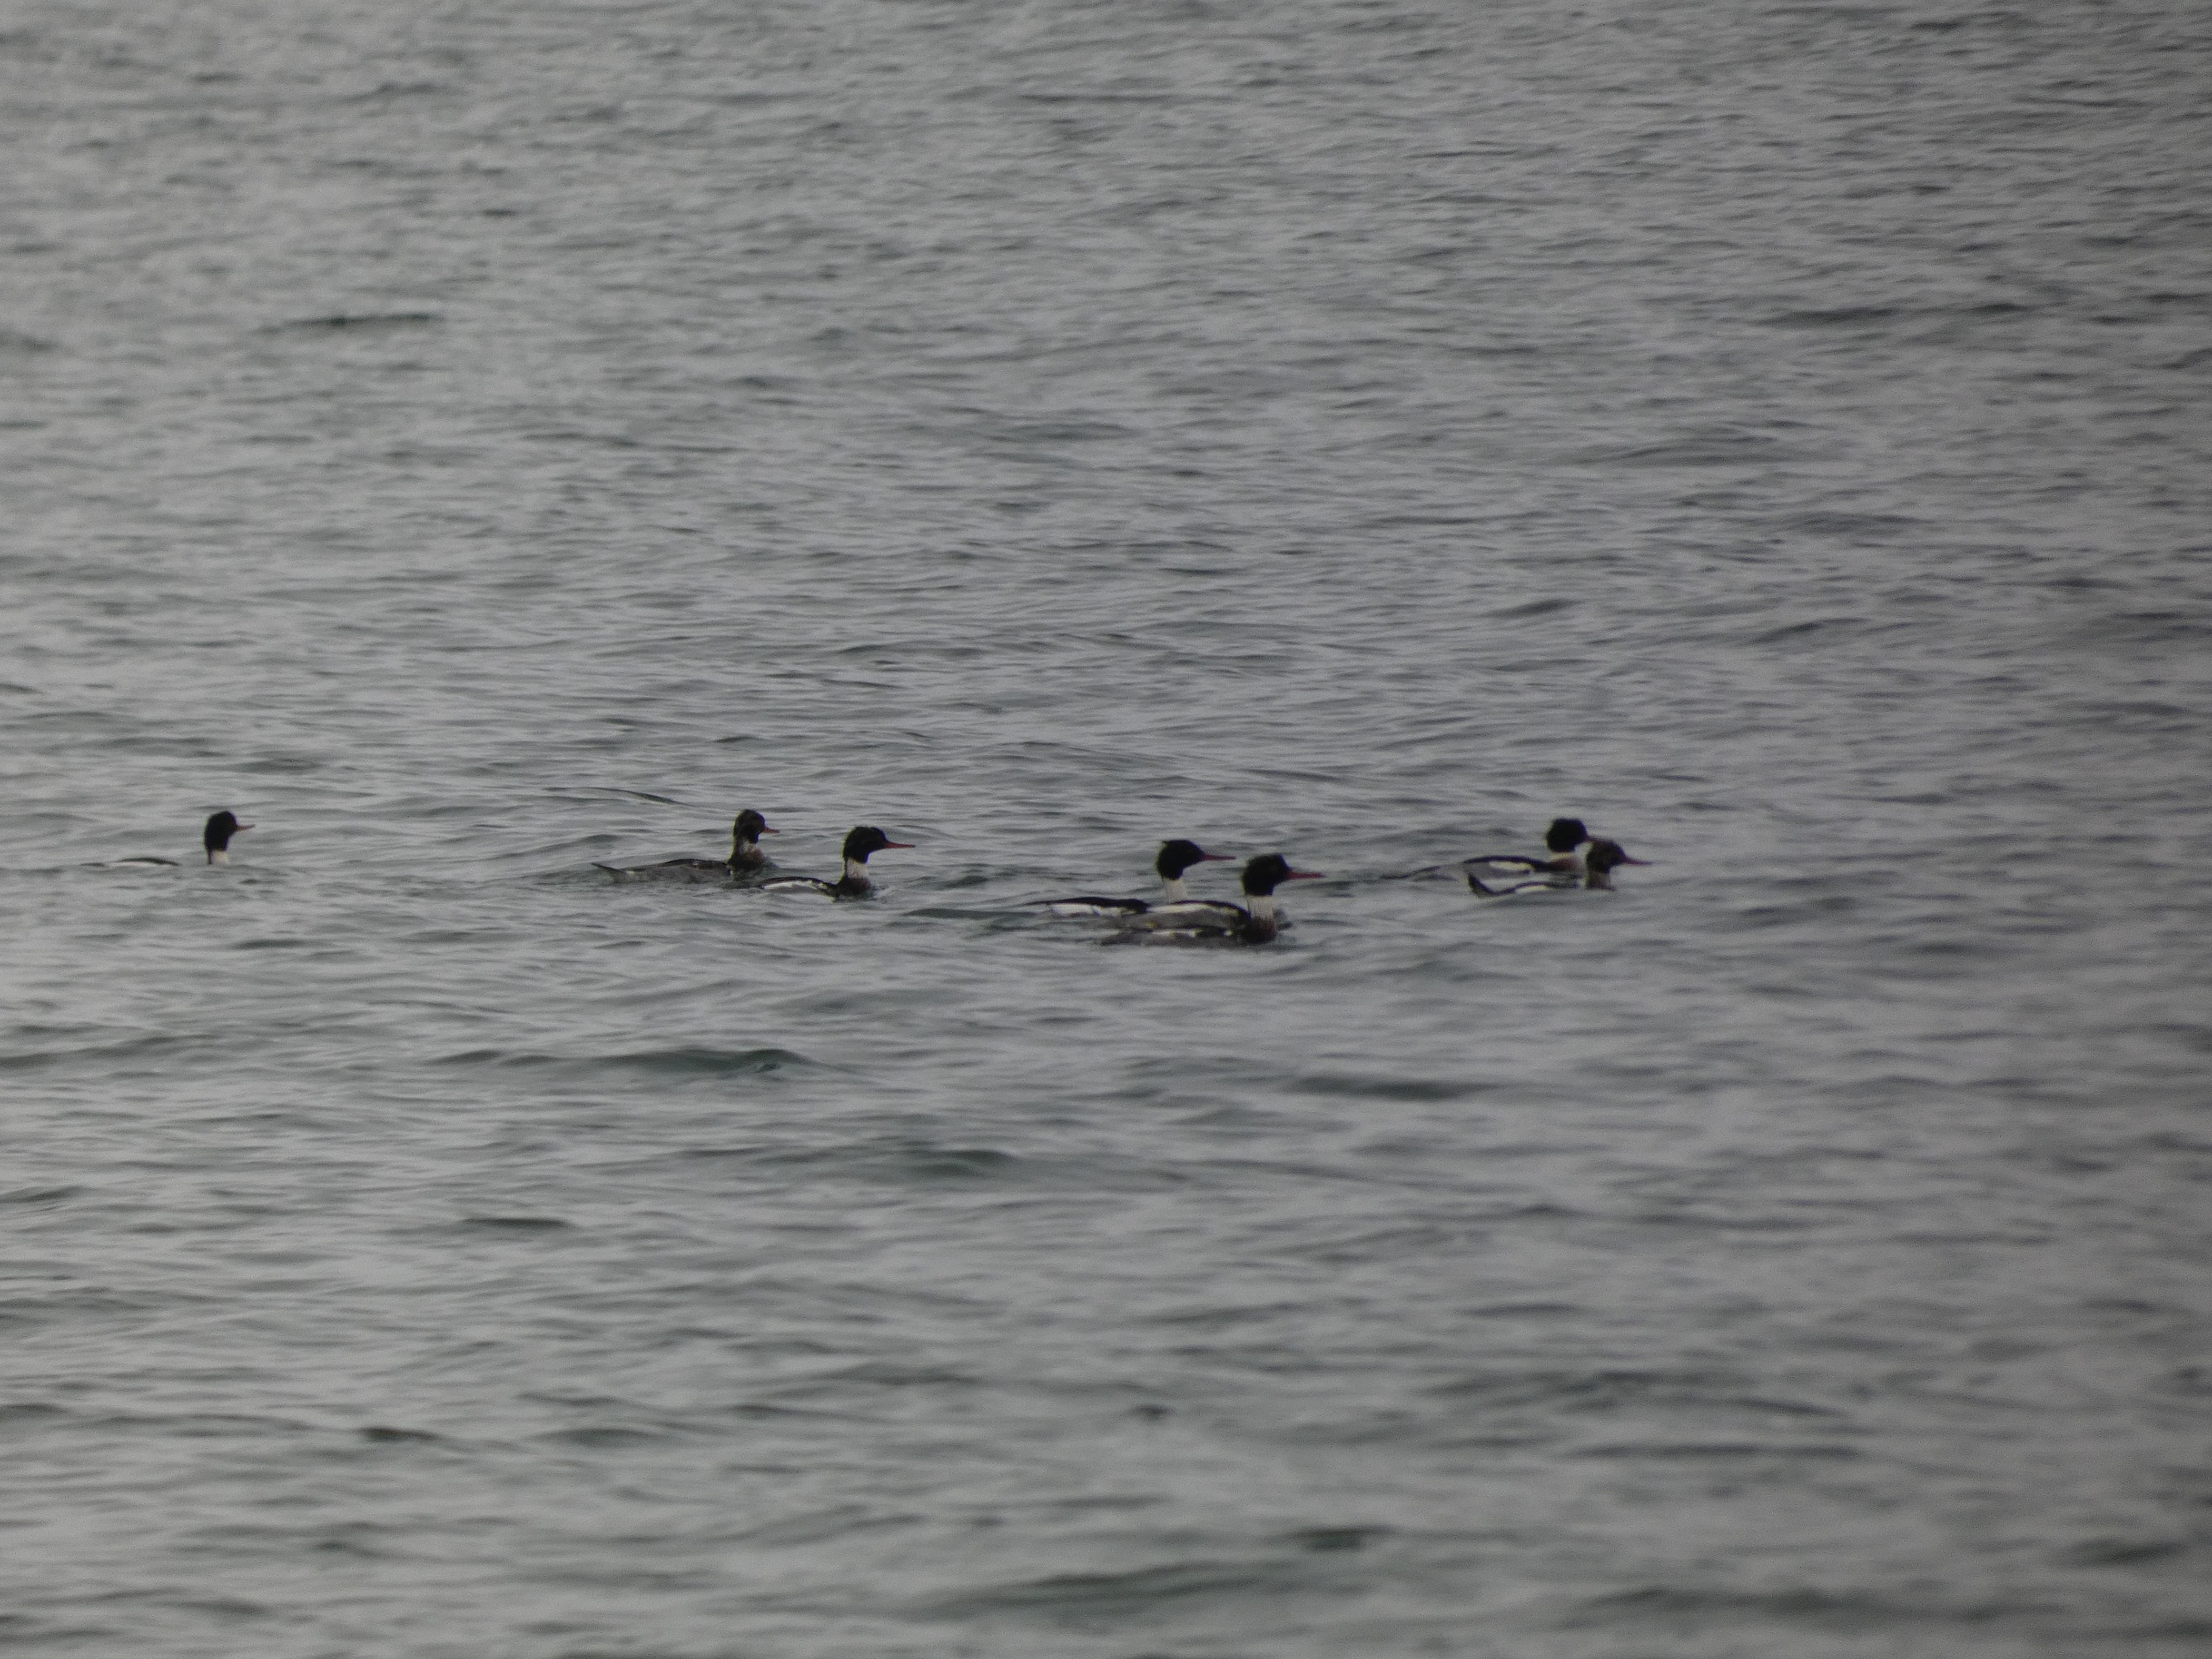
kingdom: Animalia
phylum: Chordata
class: Aves
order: Anseriformes
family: Anatidae
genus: Mergus
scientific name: Mergus serrator
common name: Toppet skallesluger
